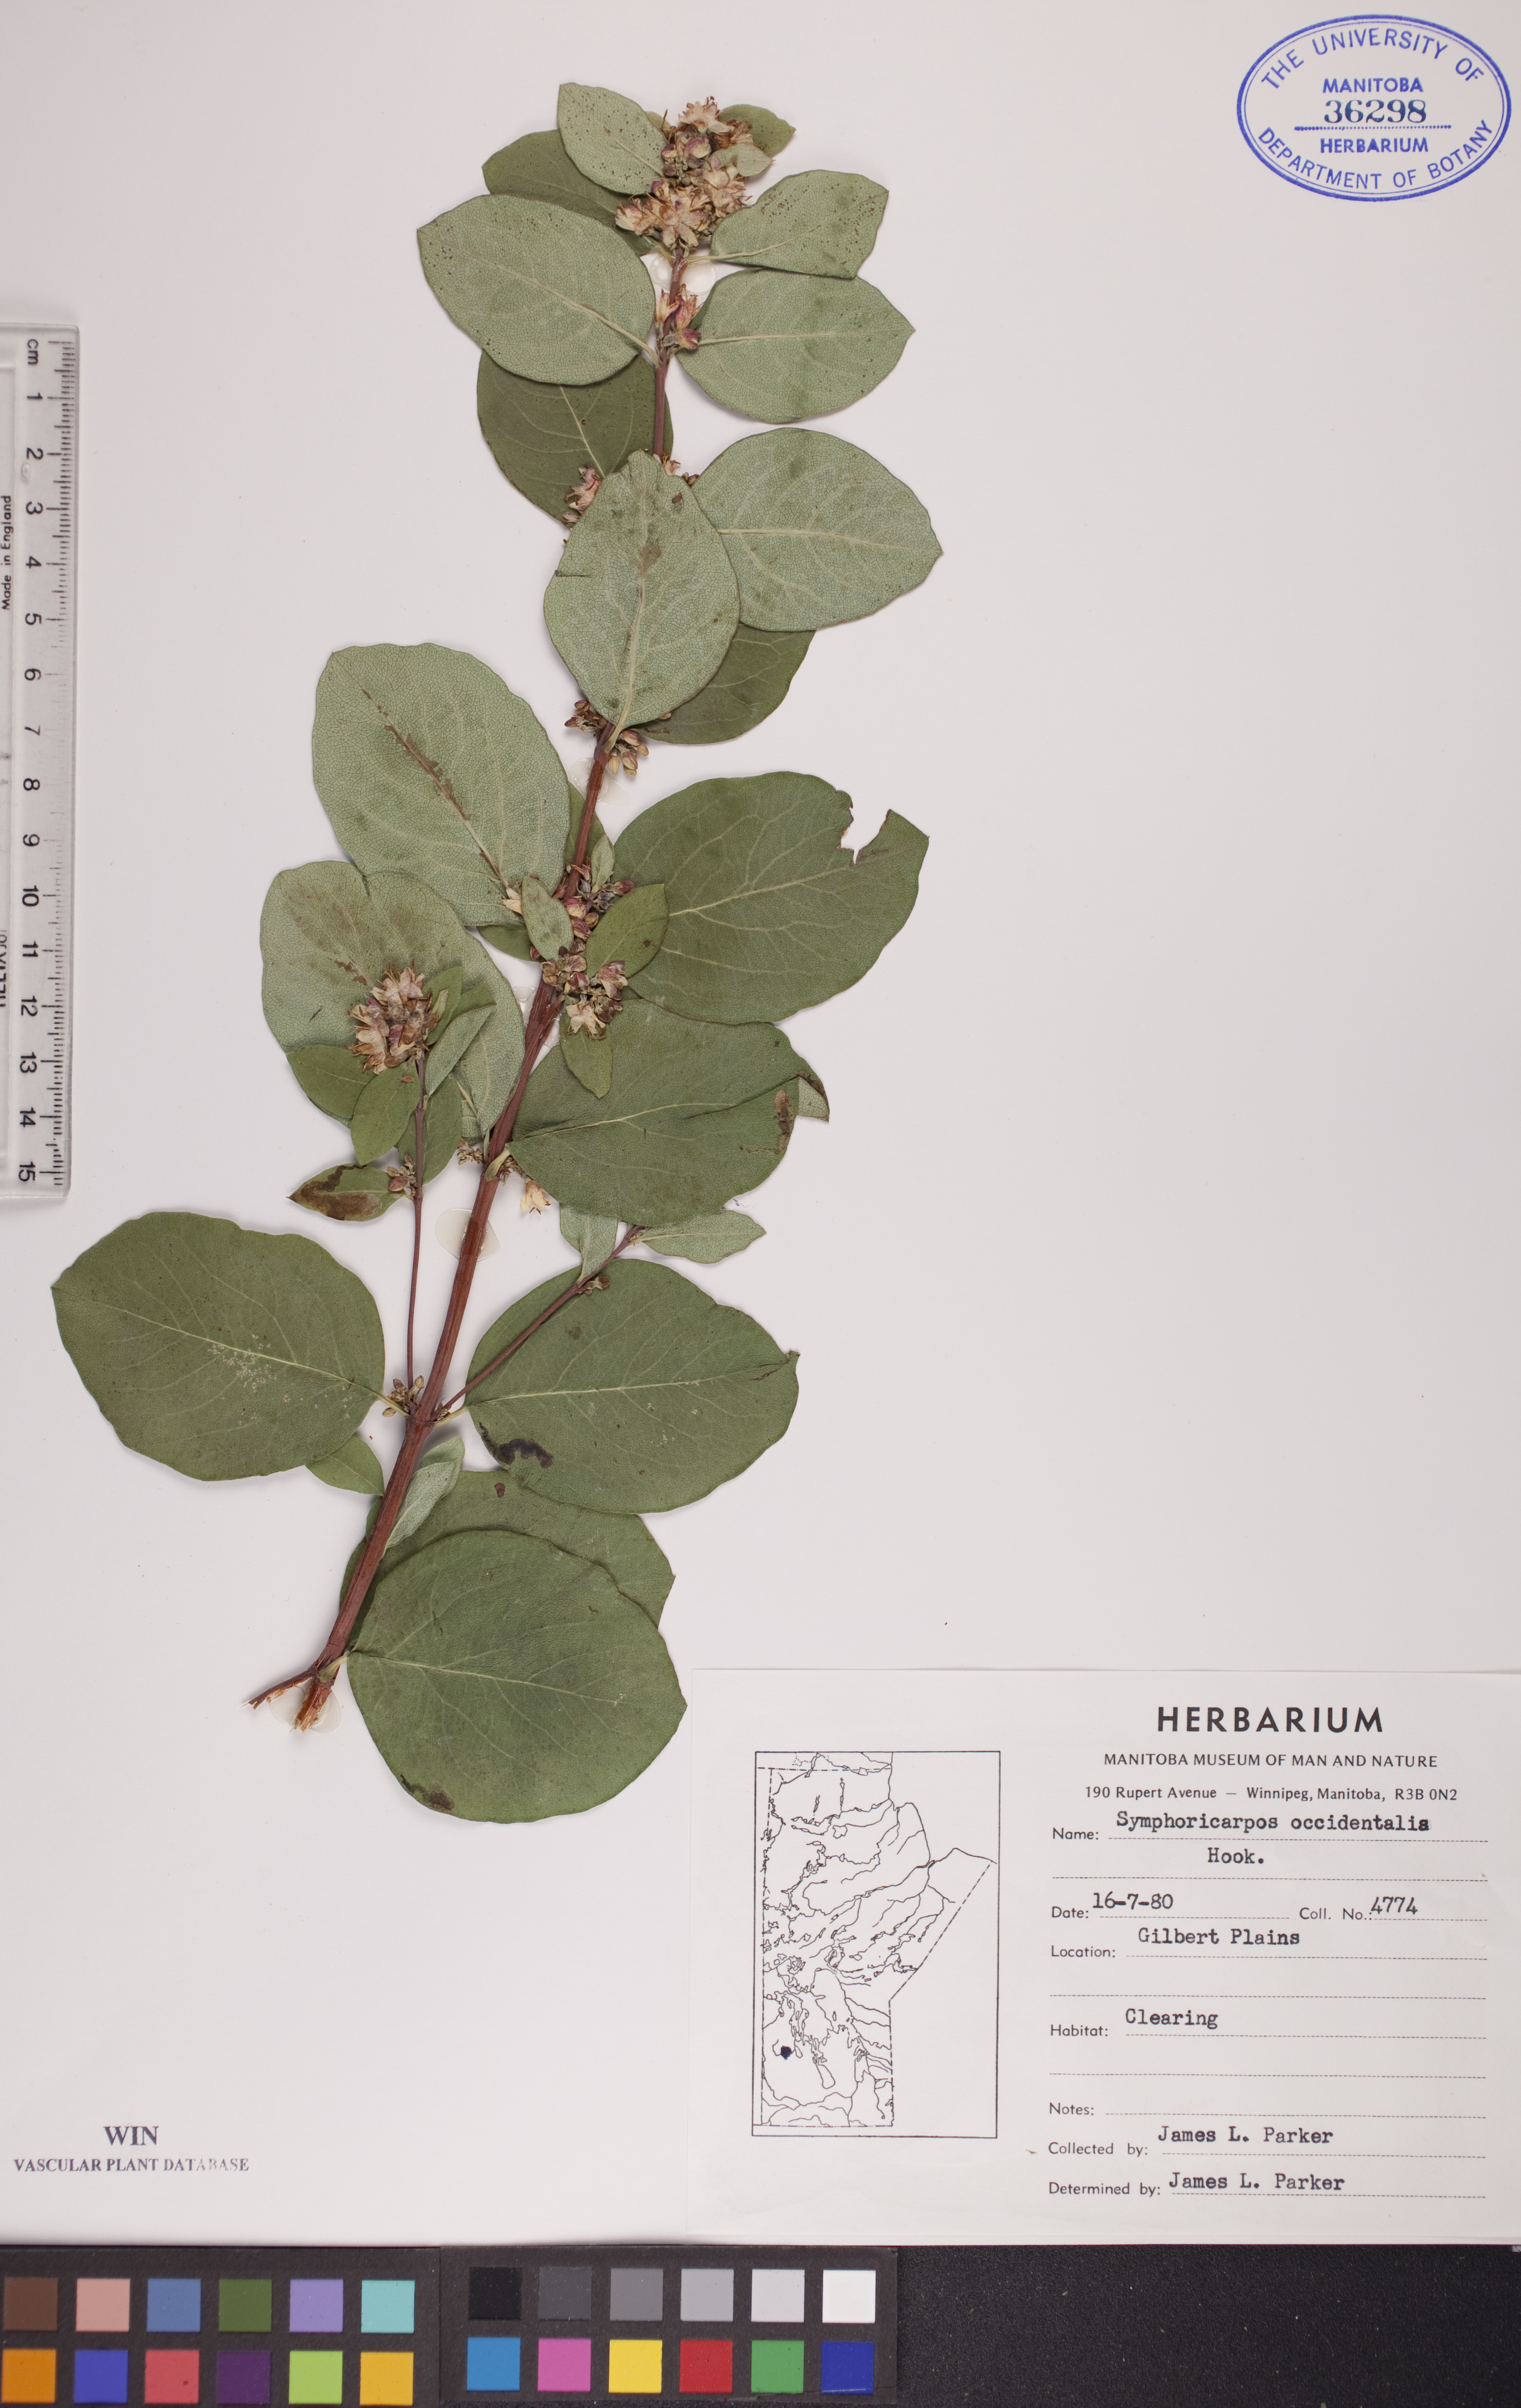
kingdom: Plantae
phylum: Tracheophyta
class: Magnoliopsida
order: Dipsacales
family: Caprifoliaceae
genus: Symphoricarpos
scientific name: Symphoricarpos occidentalis
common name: Wolfberry
